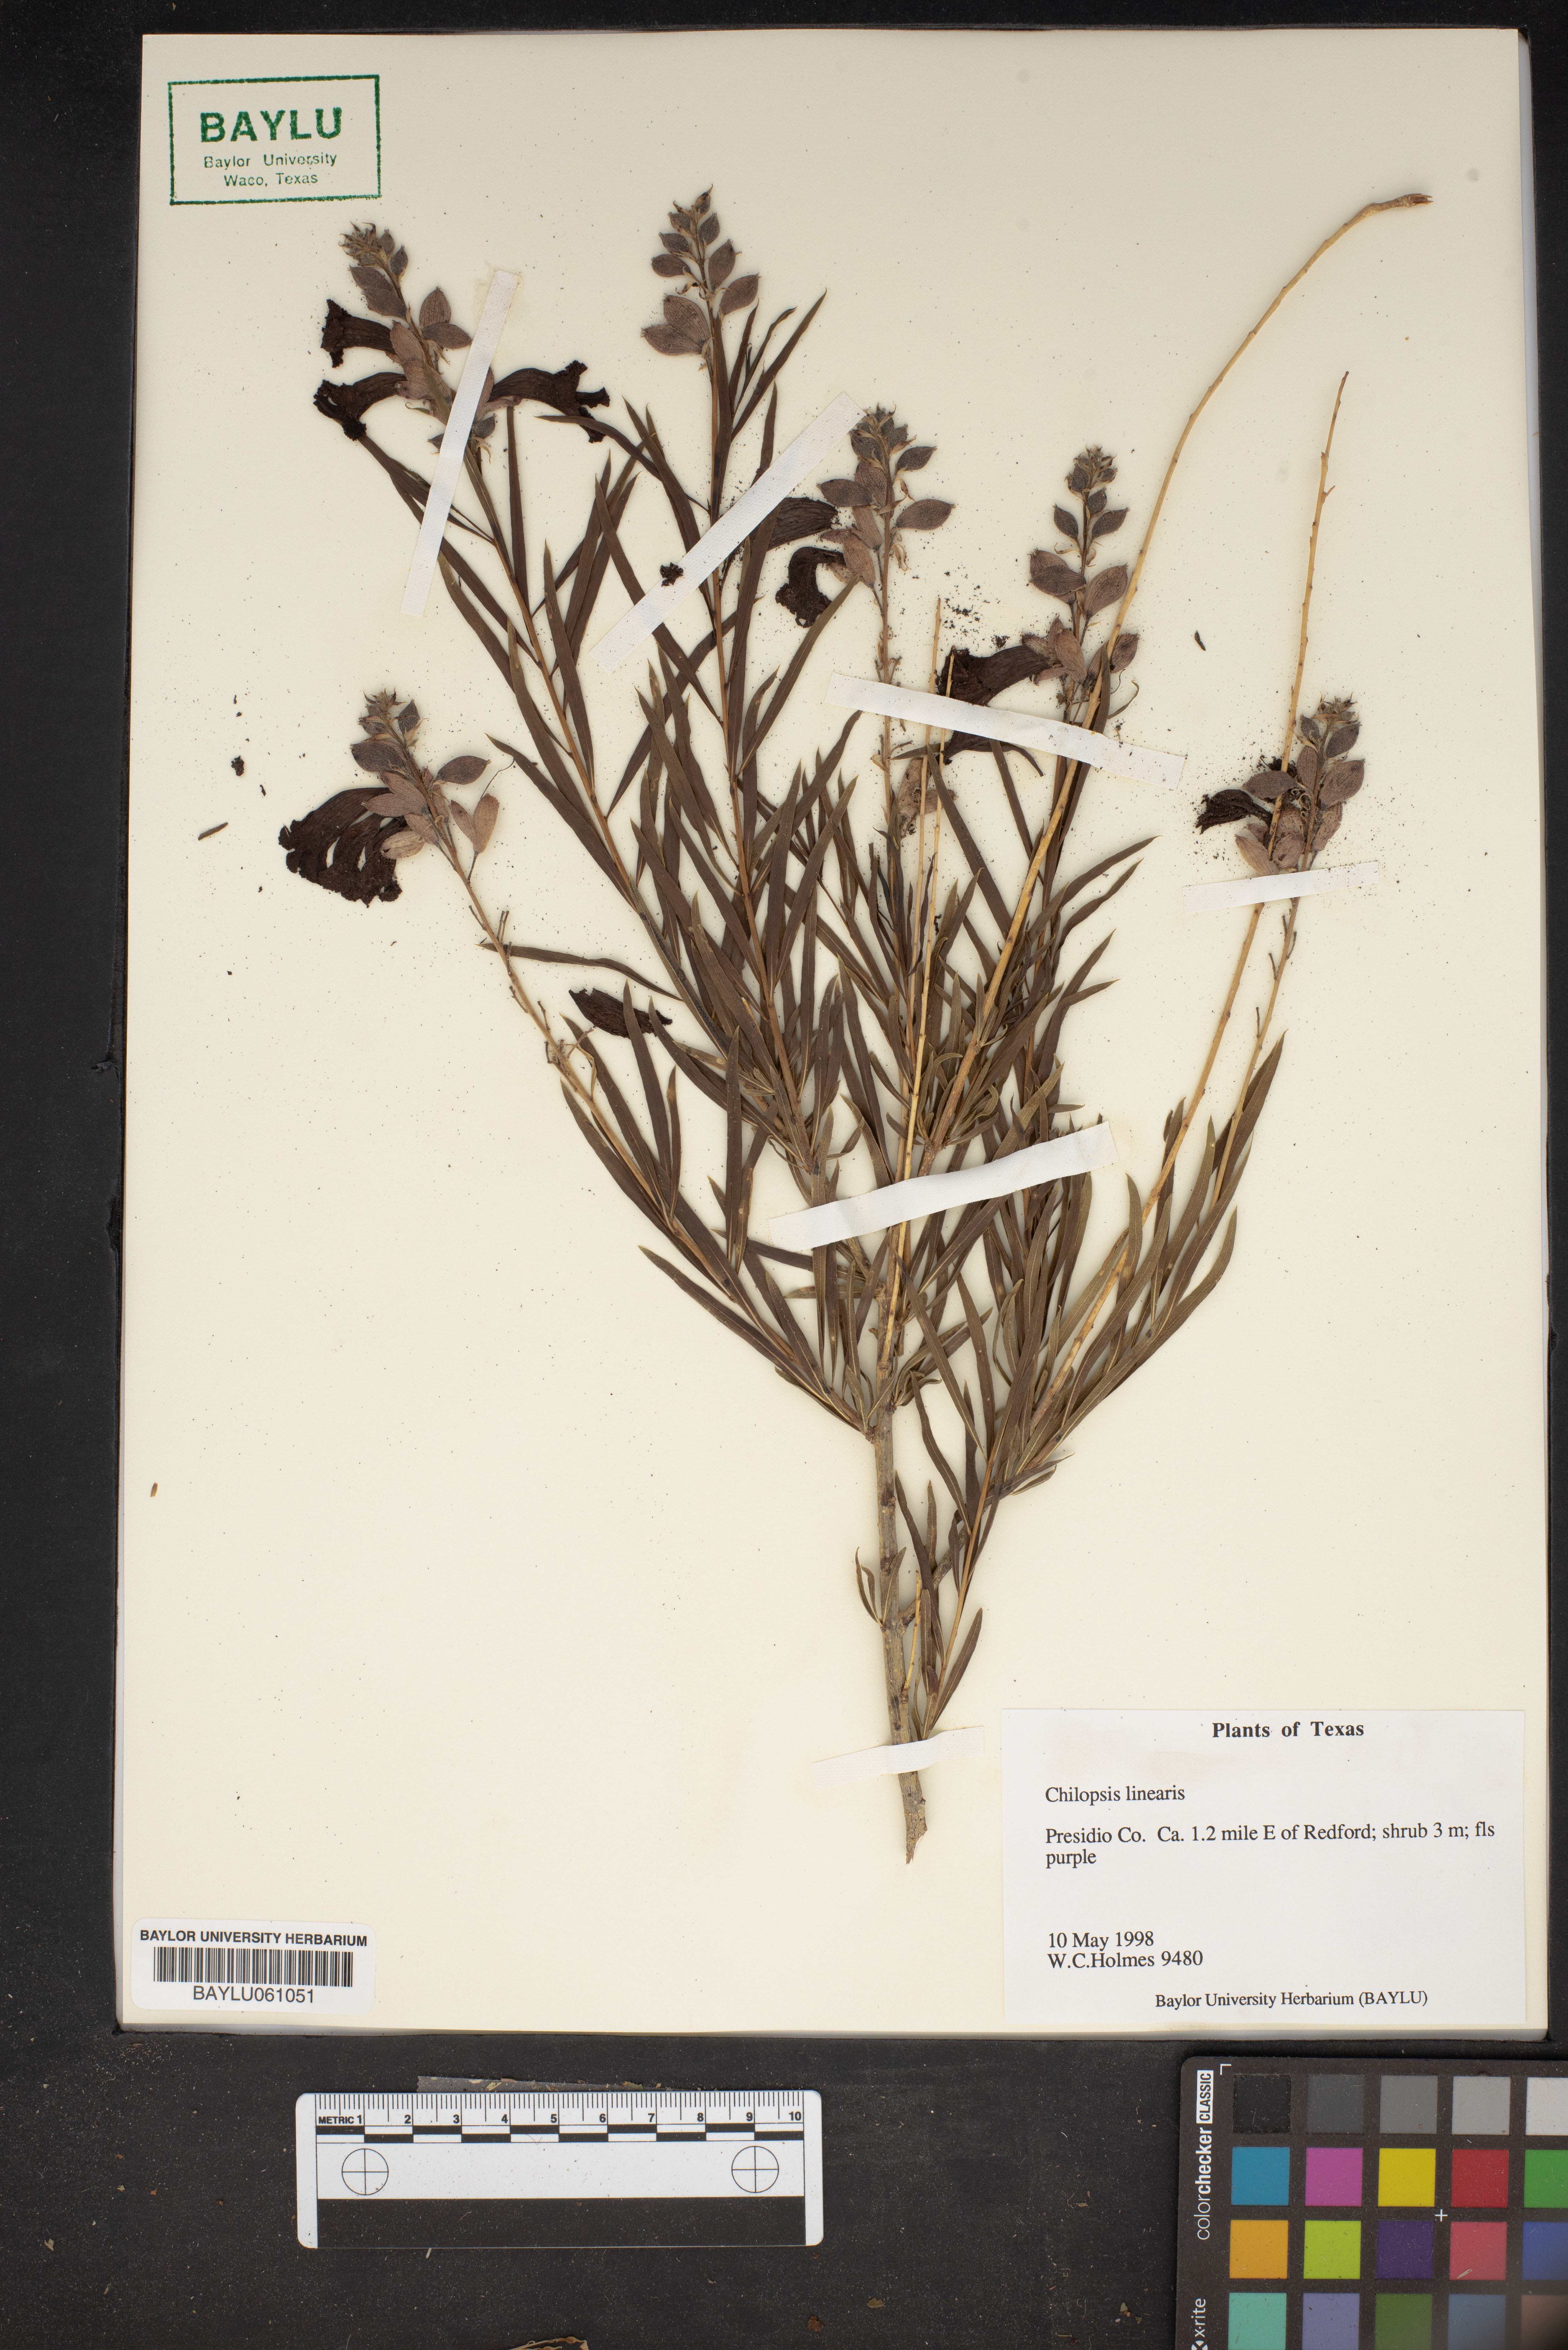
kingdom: Plantae
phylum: Tracheophyta
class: Magnoliopsida
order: Lamiales
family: Bignoniaceae
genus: Chilopsis
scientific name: Chilopsis linearis
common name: Desert-willow
